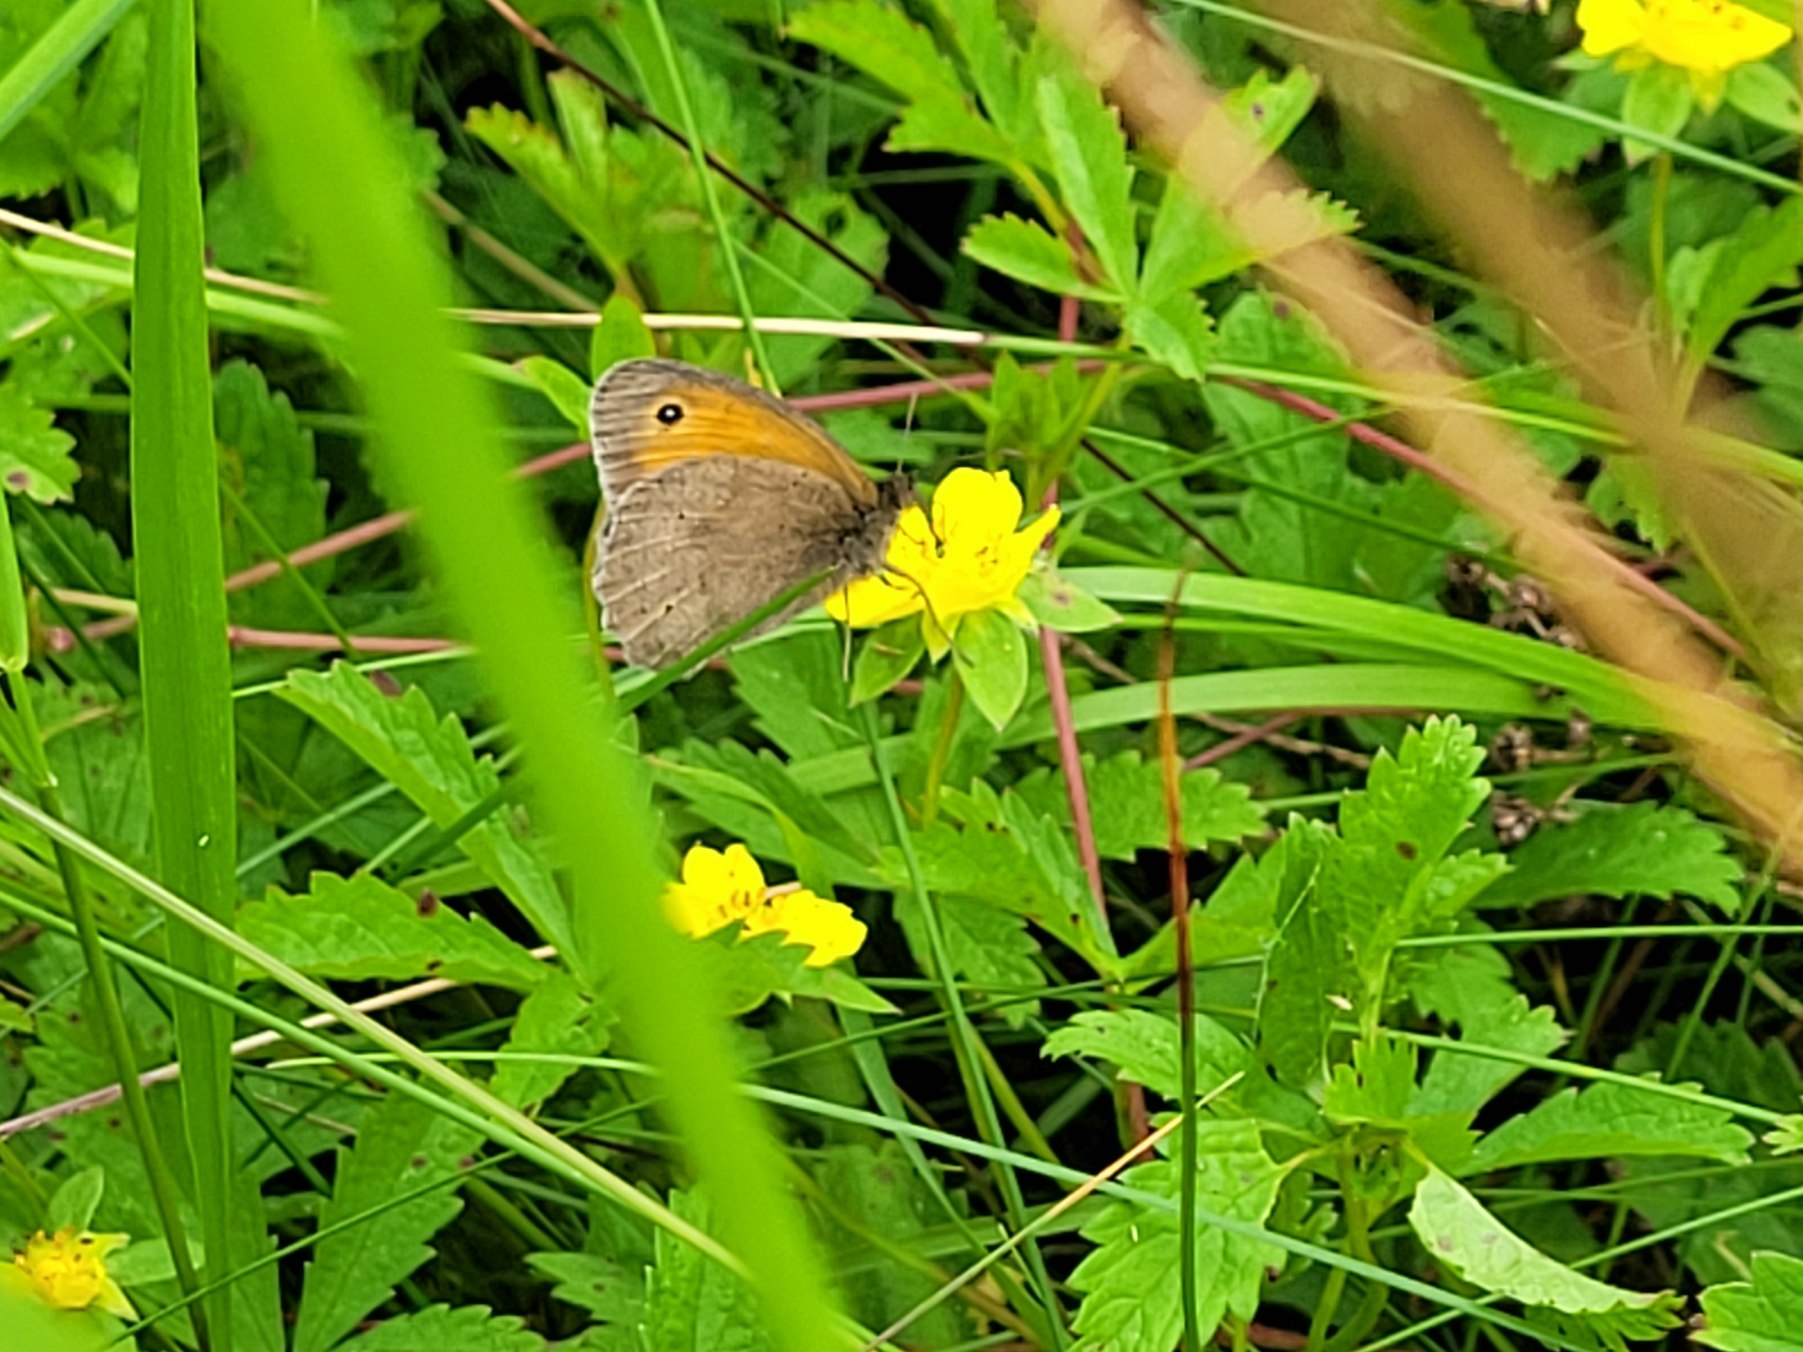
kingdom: Animalia
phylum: Arthropoda
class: Insecta
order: Lepidoptera
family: Nymphalidae
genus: Maniola
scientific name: Maniola jurtina
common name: Græsrandøje
